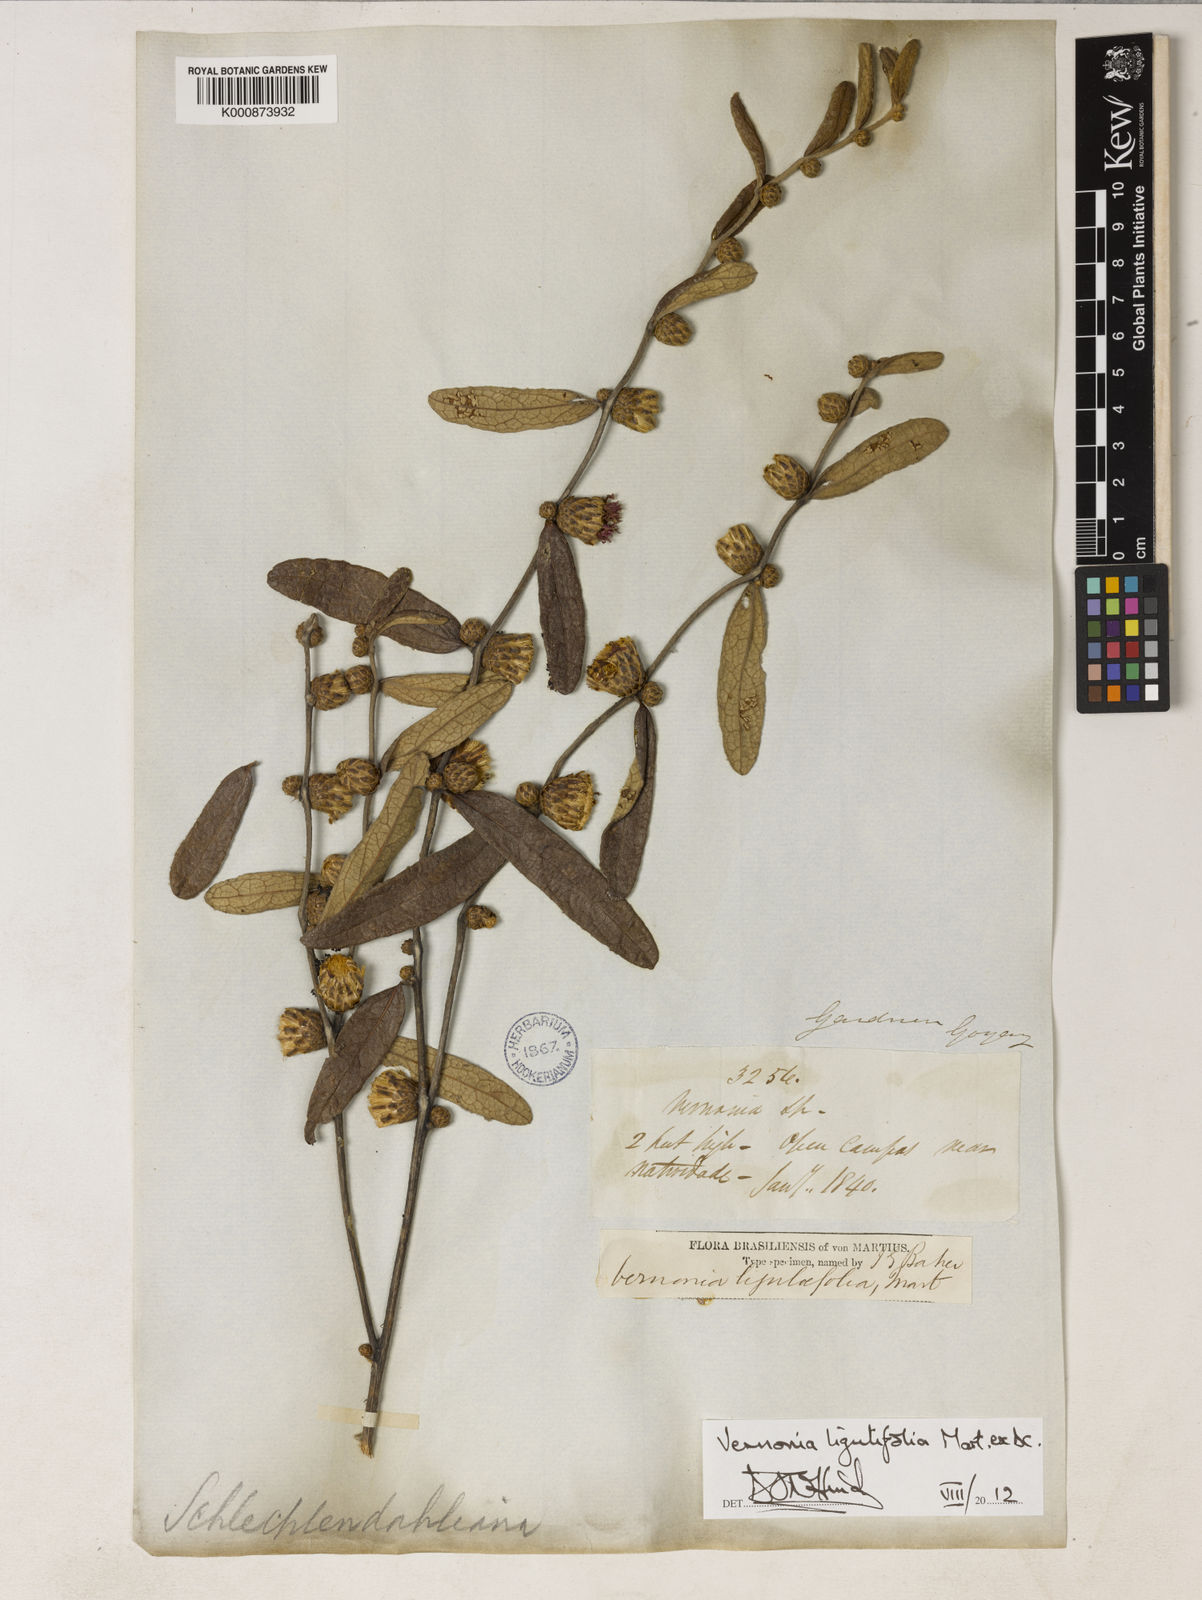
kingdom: Plantae
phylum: Tracheophyta
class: Magnoliopsida
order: Asterales
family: Asteraceae
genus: Lessingianthus
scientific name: Lessingianthus ligulifolius
